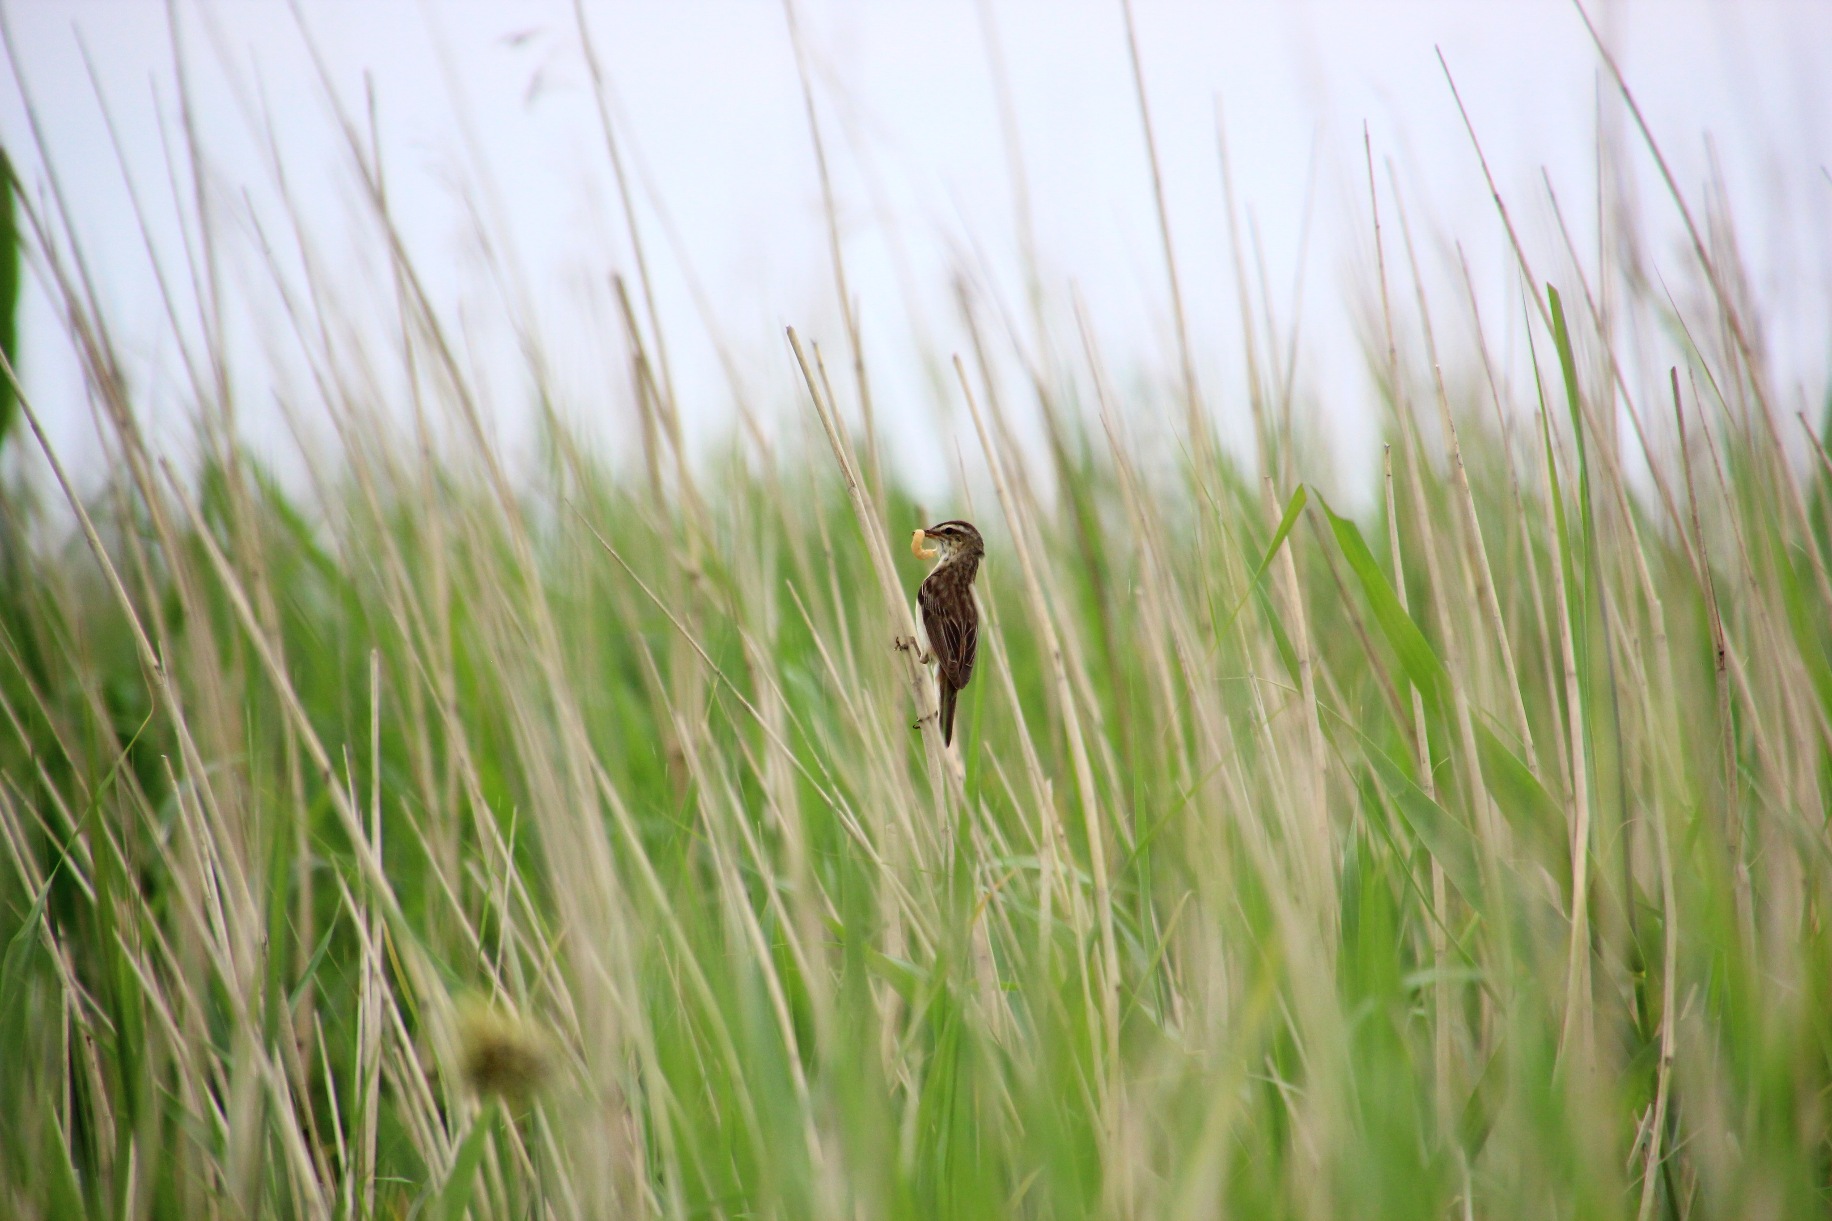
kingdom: Animalia
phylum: Chordata
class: Aves
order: Passeriformes
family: Acrocephalidae
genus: Acrocephalus
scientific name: Acrocephalus schoenobaenus
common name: Sivsanger
